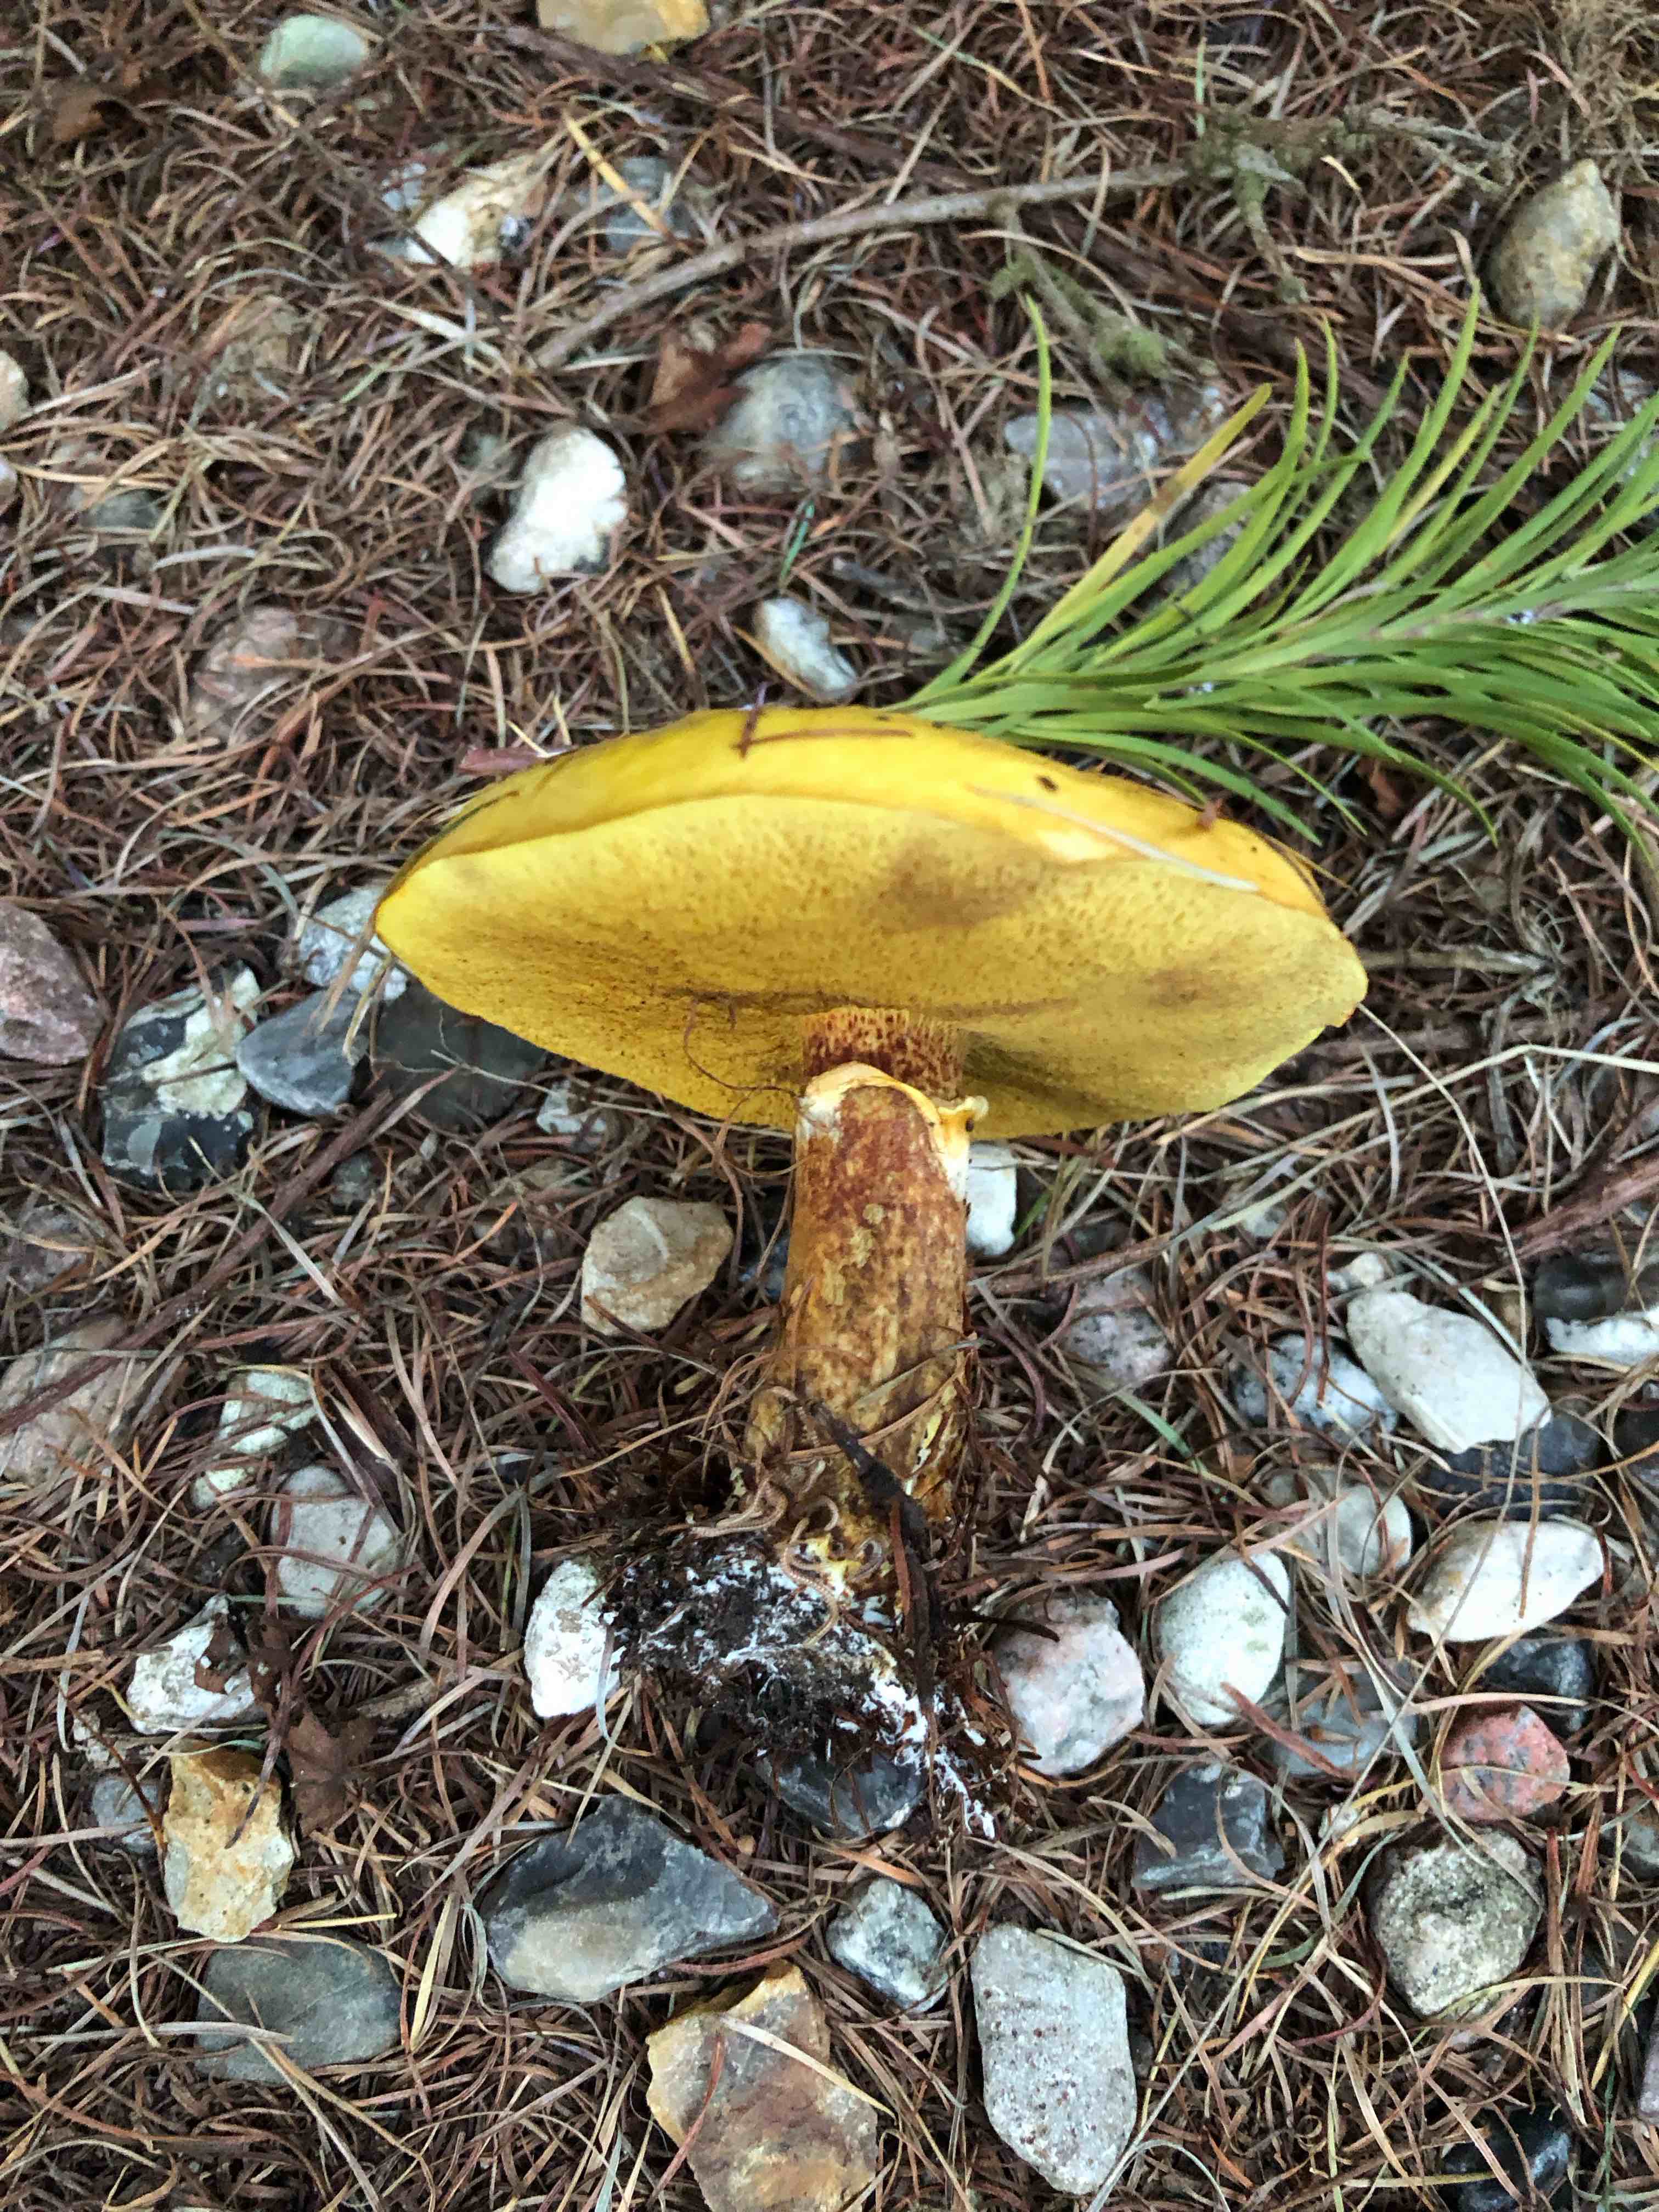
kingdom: Fungi
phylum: Basidiomycota
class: Agaricomycetes
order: Boletales
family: Suillaceae
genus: Suillus
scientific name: Suillus grevillei
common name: lærke-slimrørhat
